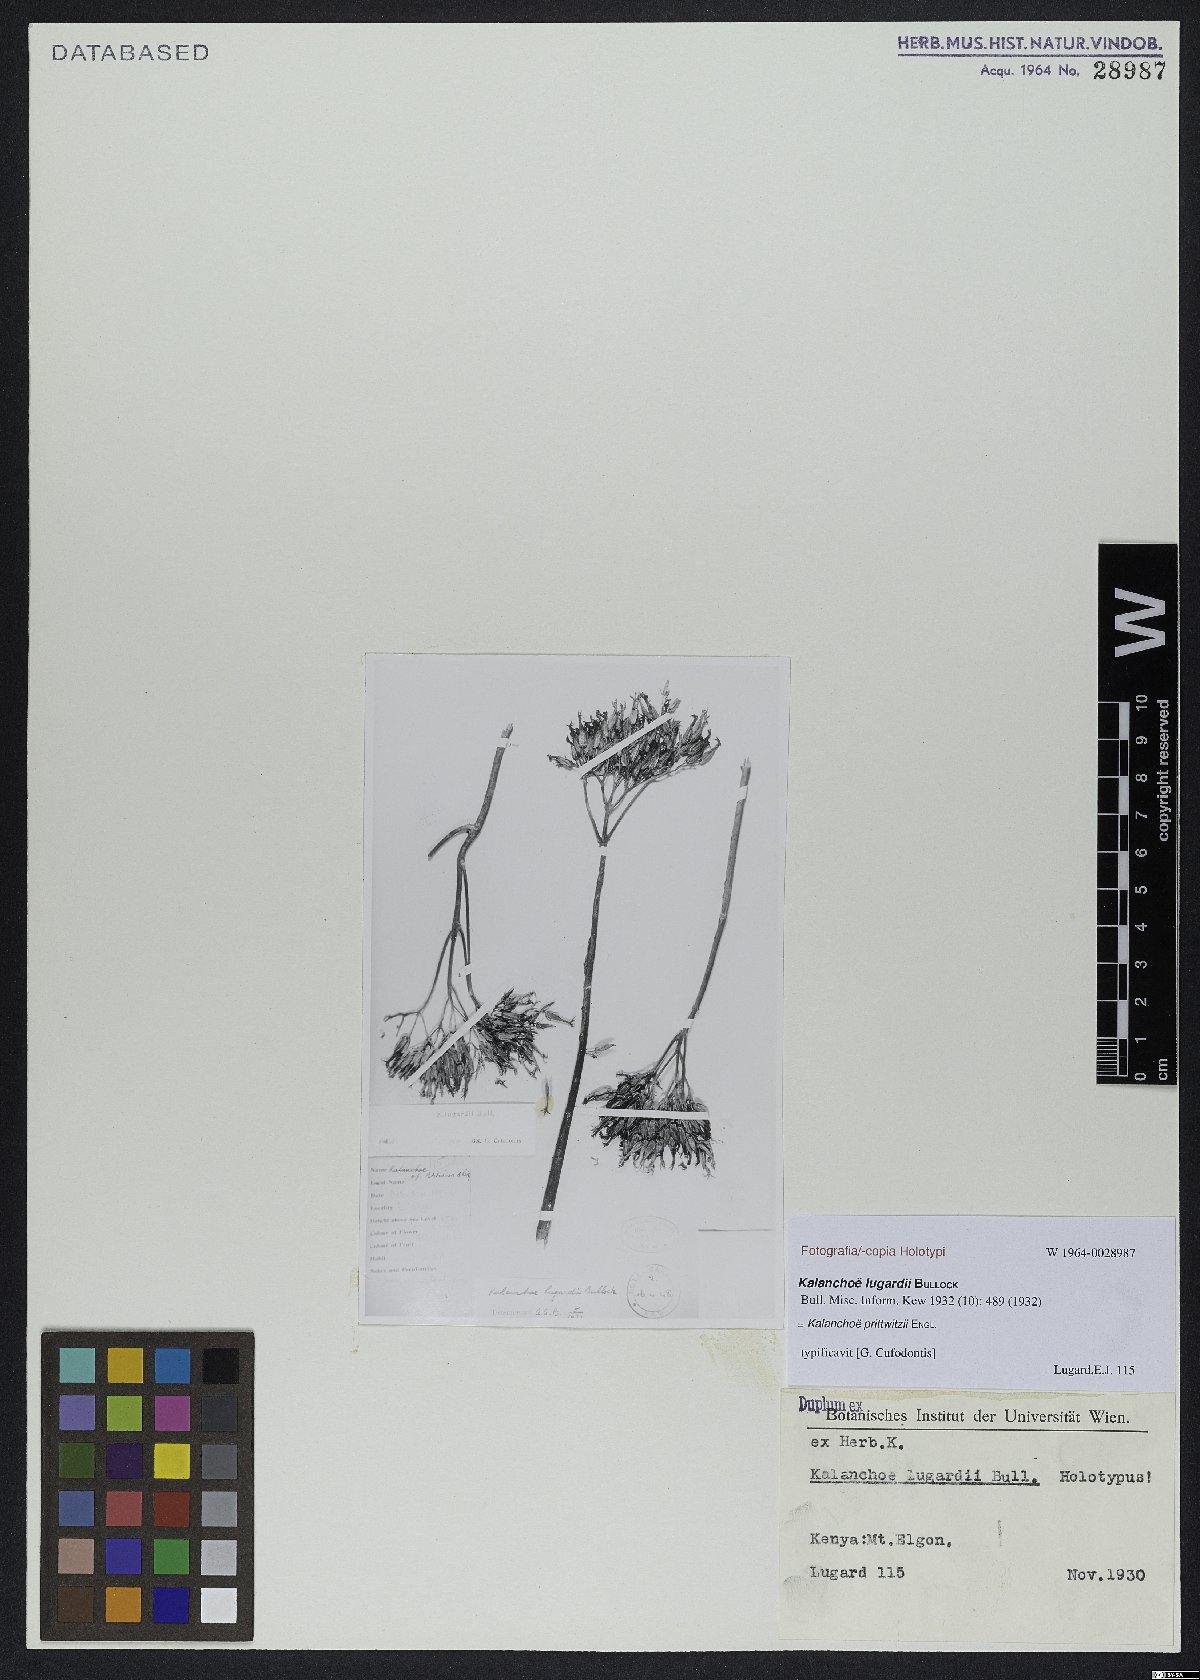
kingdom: Plantae
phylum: Tracheophyta
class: Magnoliopsida
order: Saxifragales
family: Crassulaceae
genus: Kalanchoe
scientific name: Kalanchoe prittwitzii
